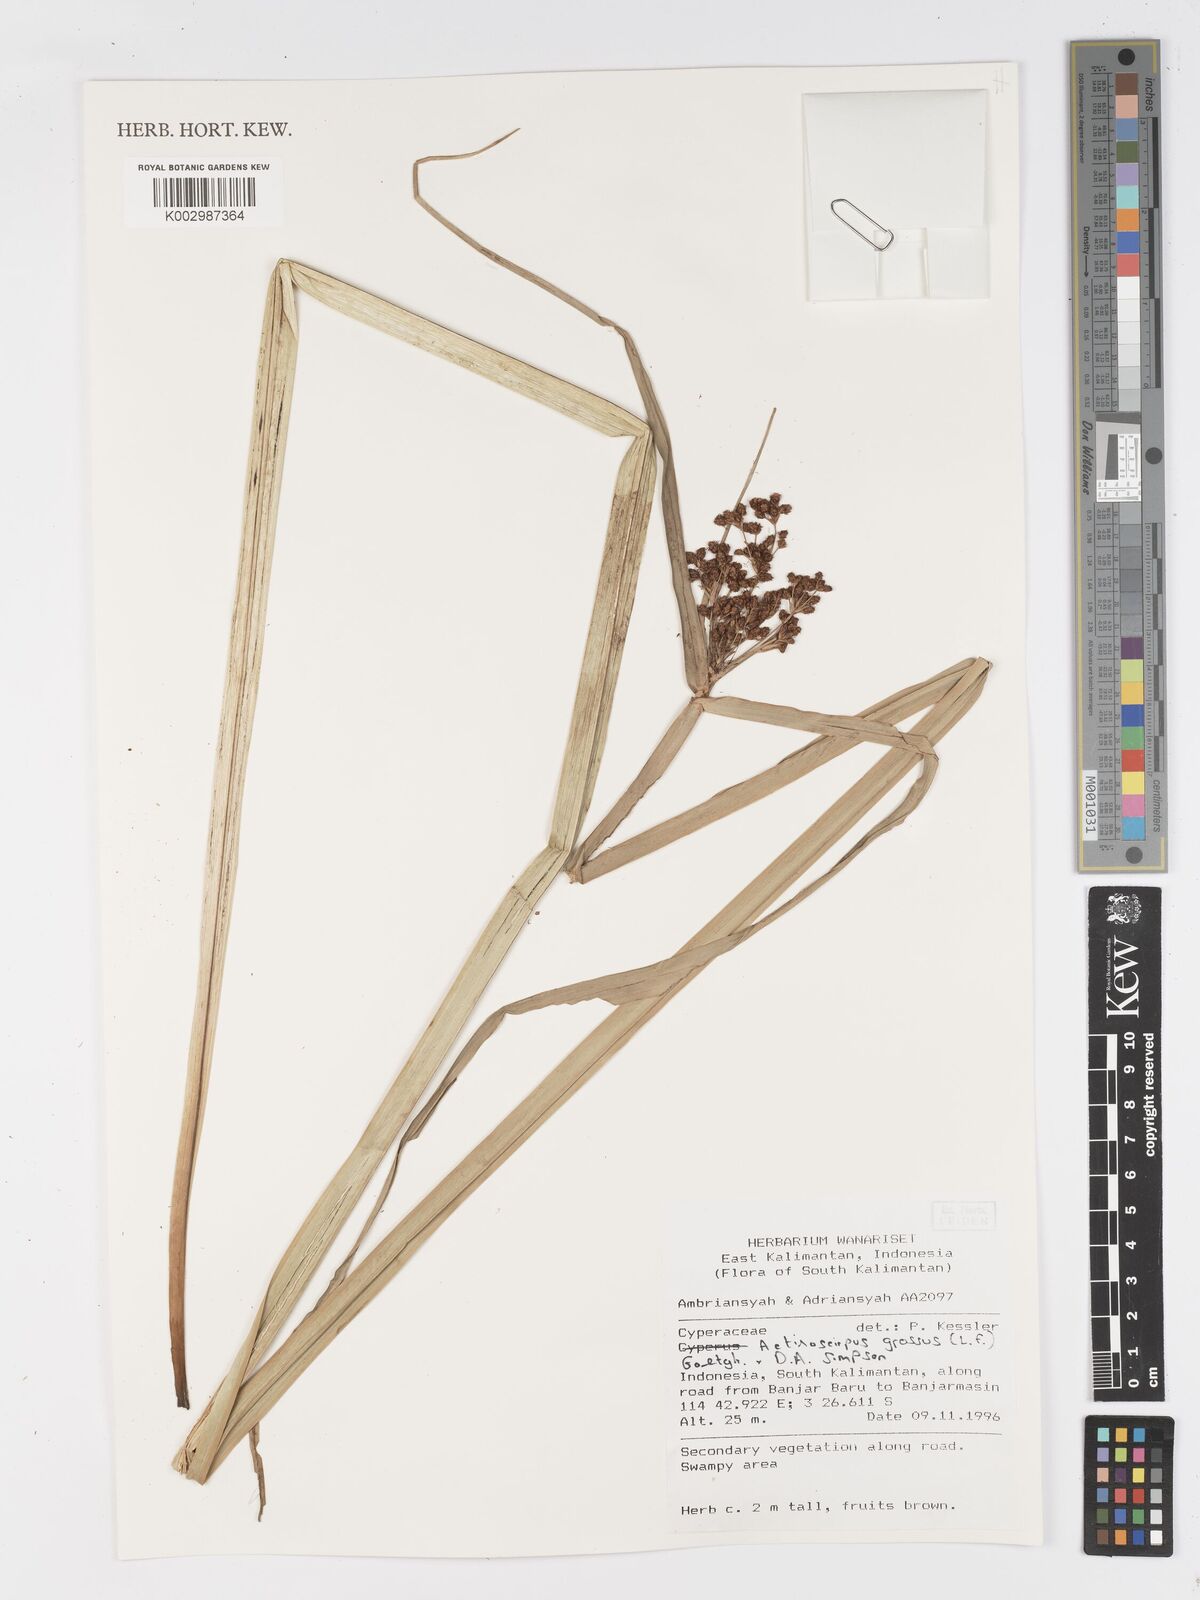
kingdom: Plantae
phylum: Tracheophyta
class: Liliopsida
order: Poales
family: Cyperaceae
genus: Actinoscirpus
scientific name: Actinoscirpus grossus
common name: Giant bur rush
